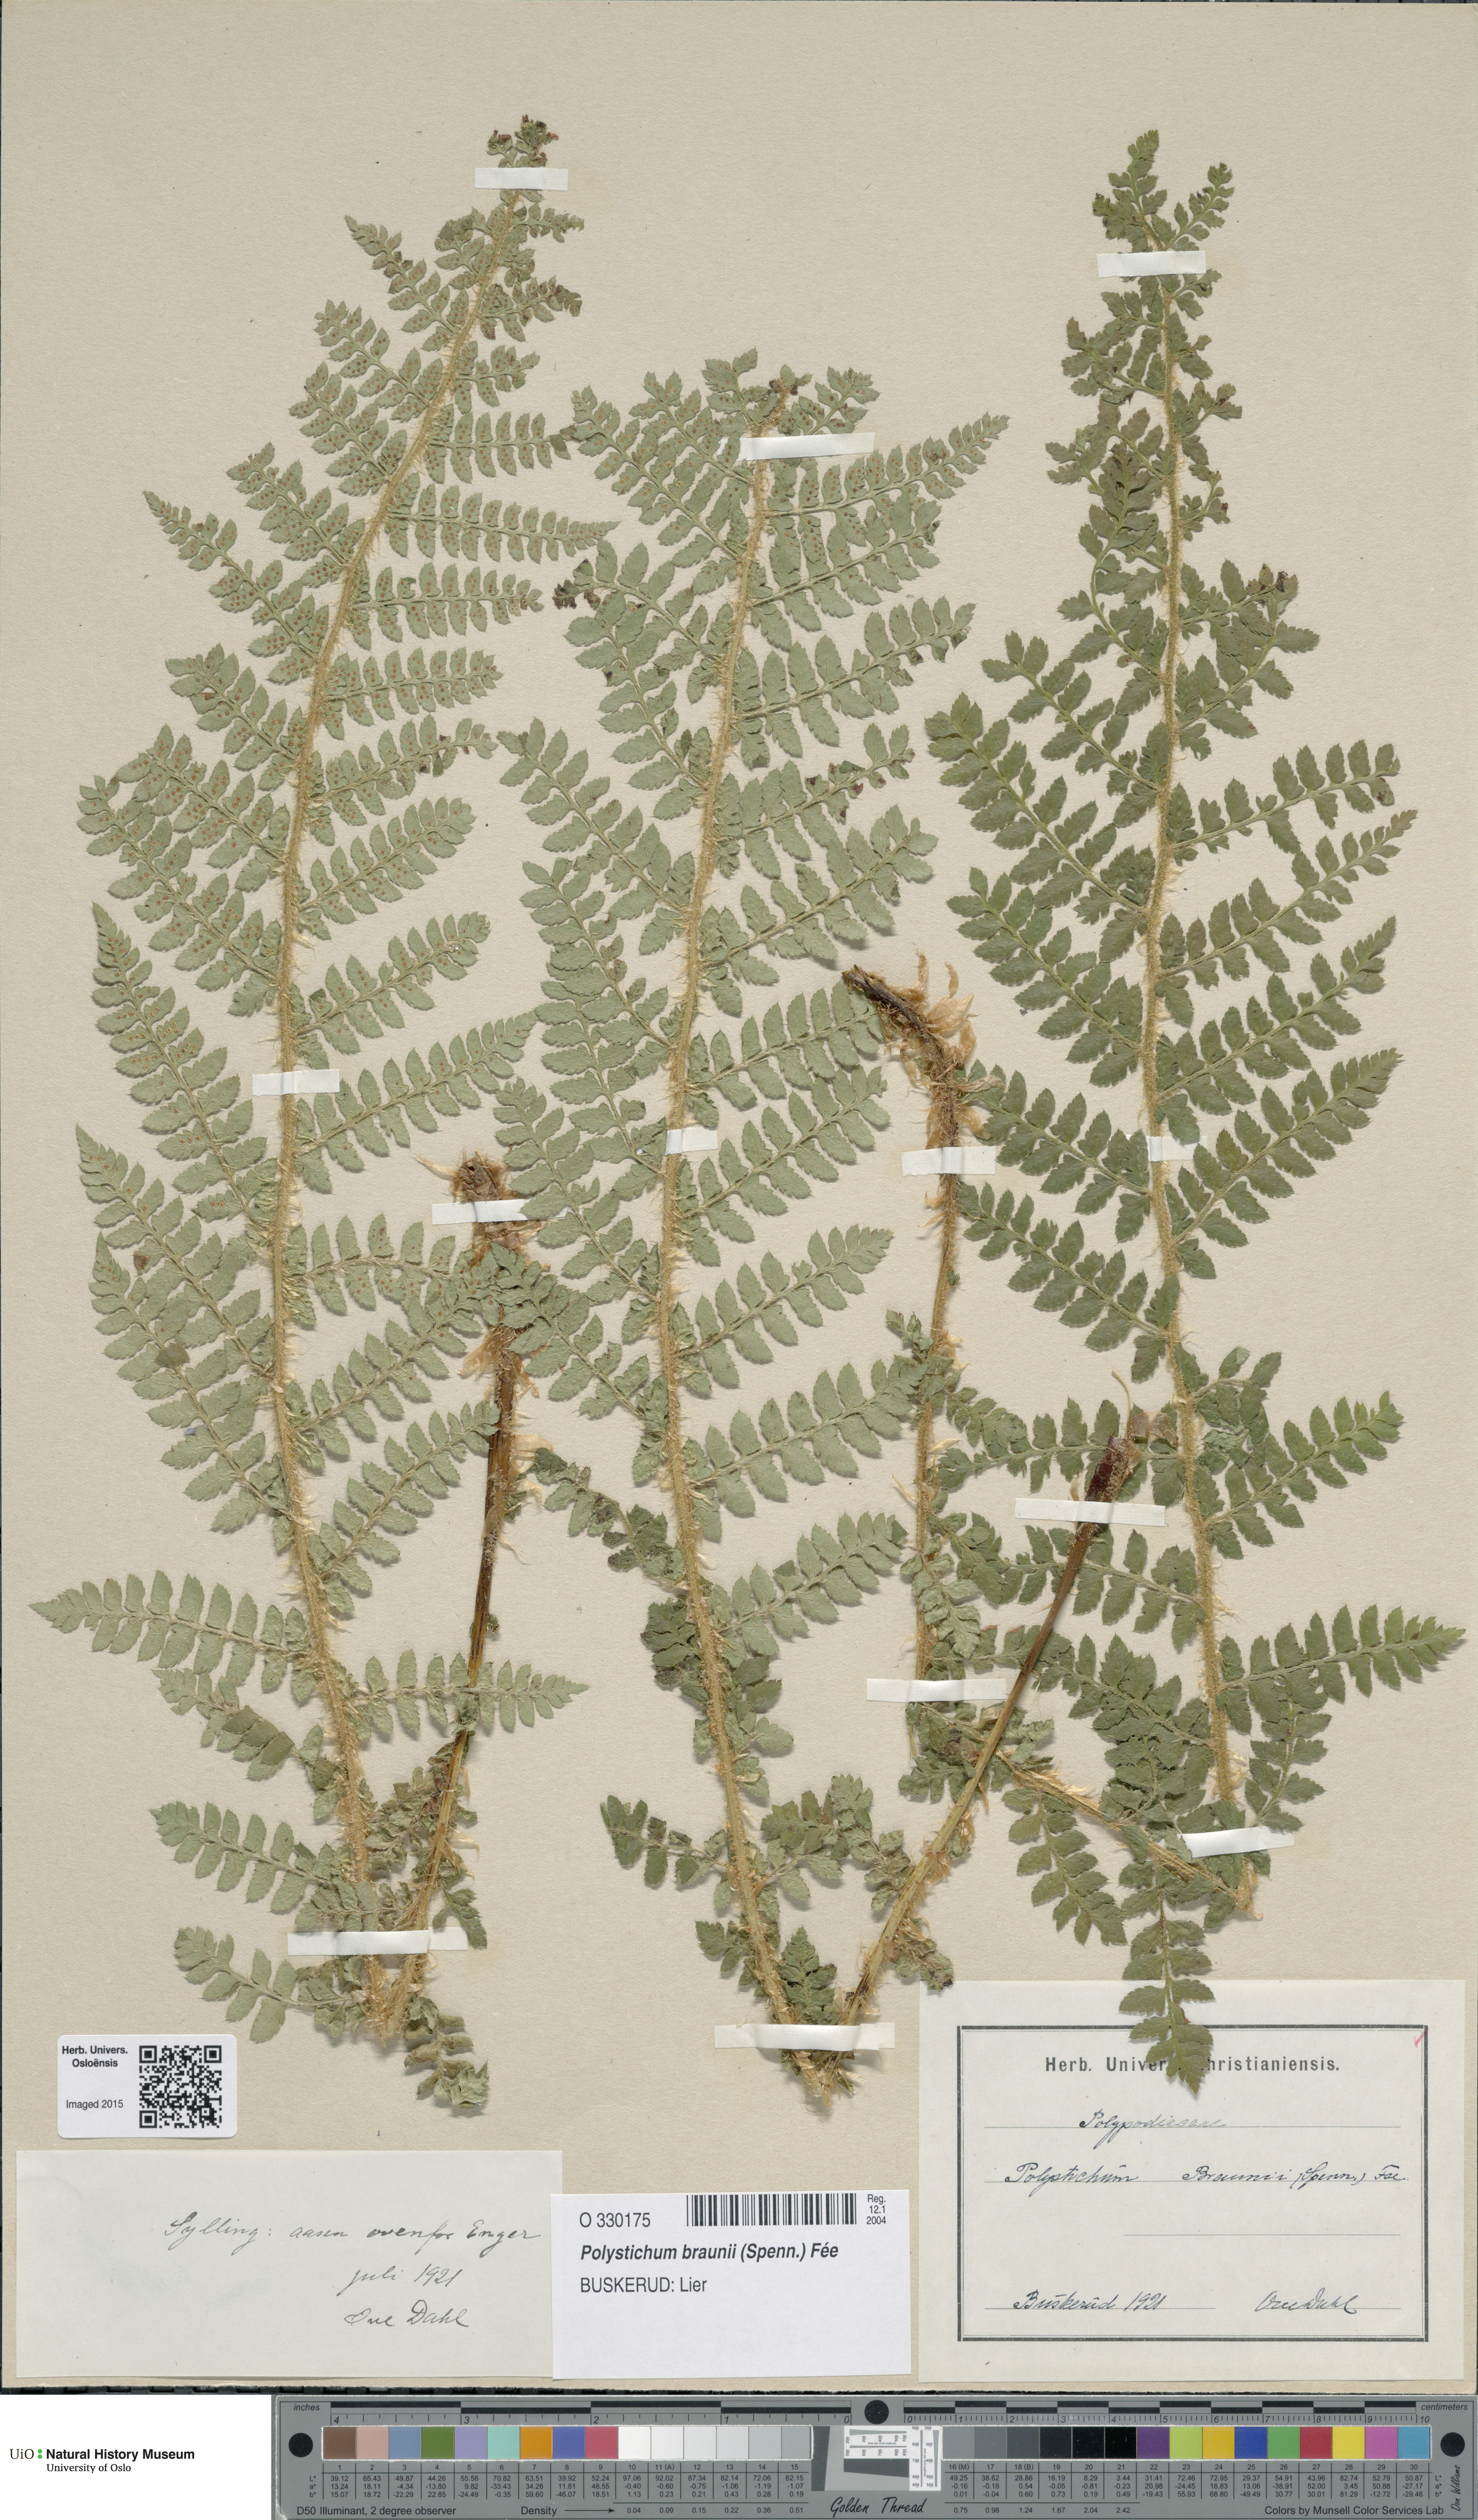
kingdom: Plantae
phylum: Tracheophyta
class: Polypodiopsida
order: Polypodiales
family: Dryopteridaceae
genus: Polystichum
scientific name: Polystichum braunii
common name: Braun's holly fern
